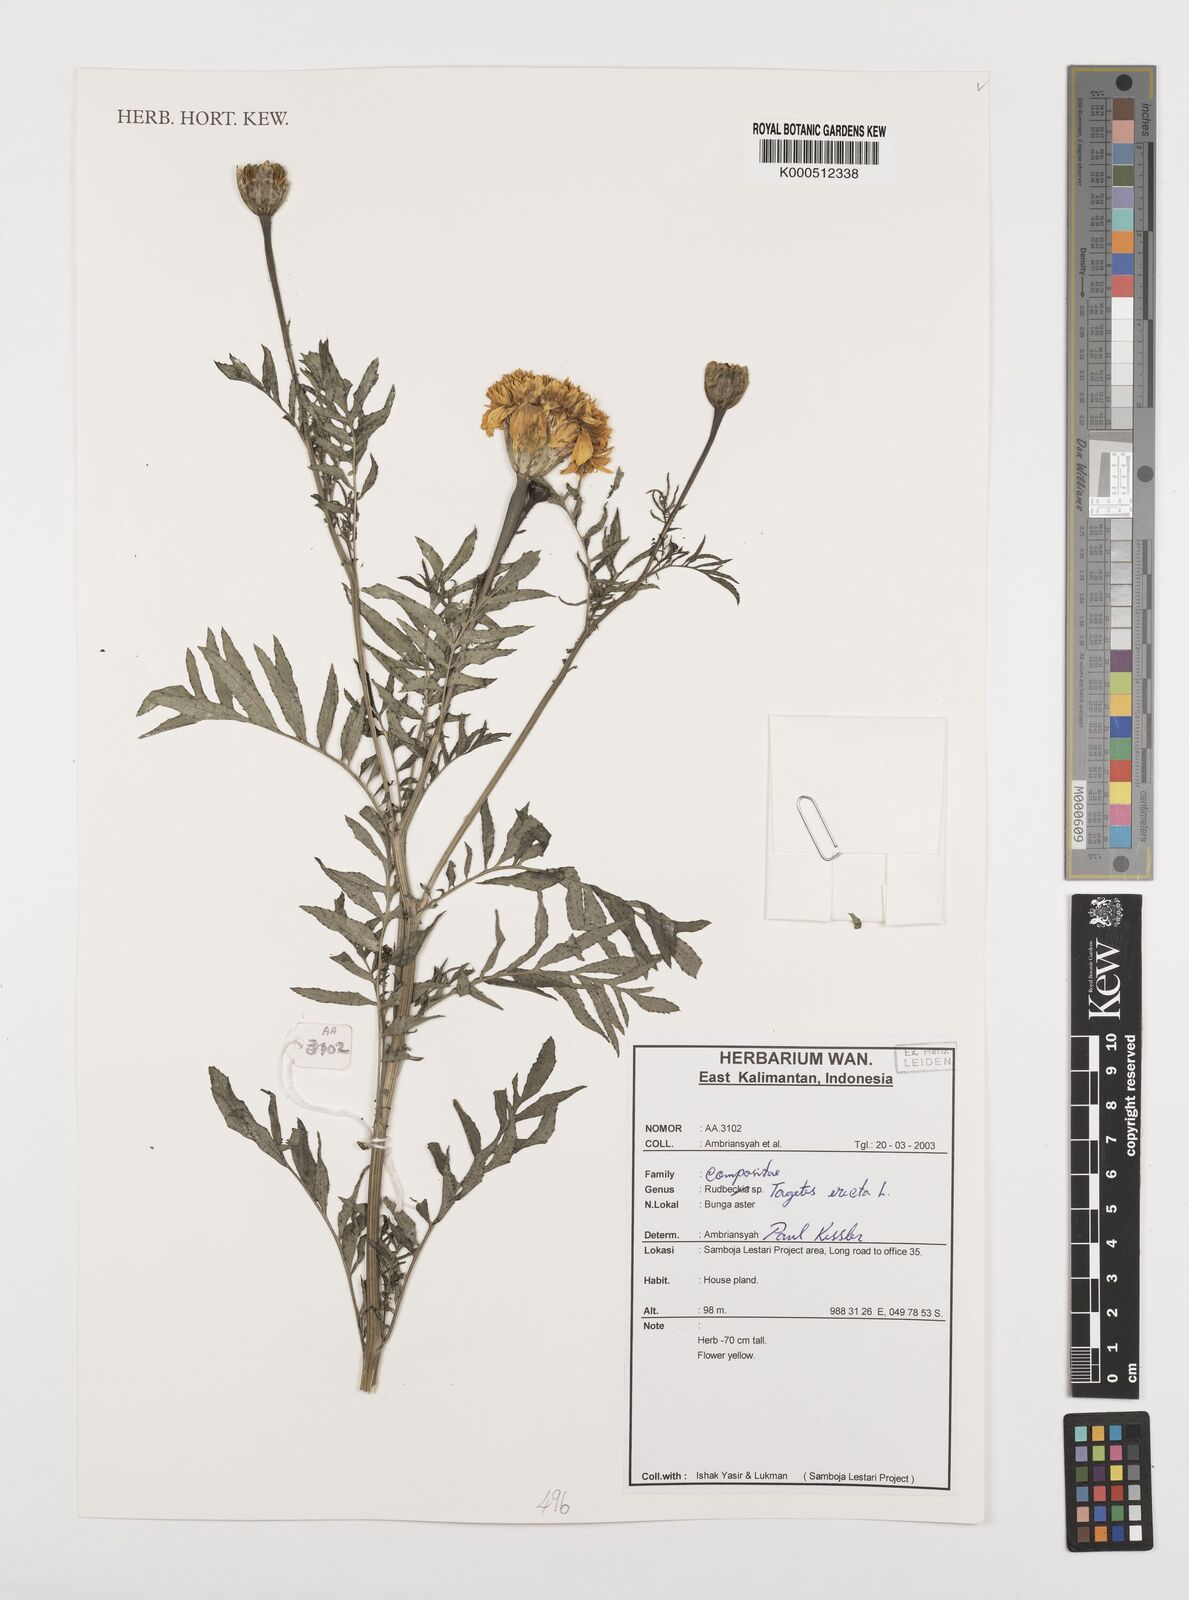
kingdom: Plantae
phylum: Tracheophyta
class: Magnoliopsida
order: Asterales
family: Asteraceae
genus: Tagetes
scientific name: Tagetes erecta
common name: African marigold
